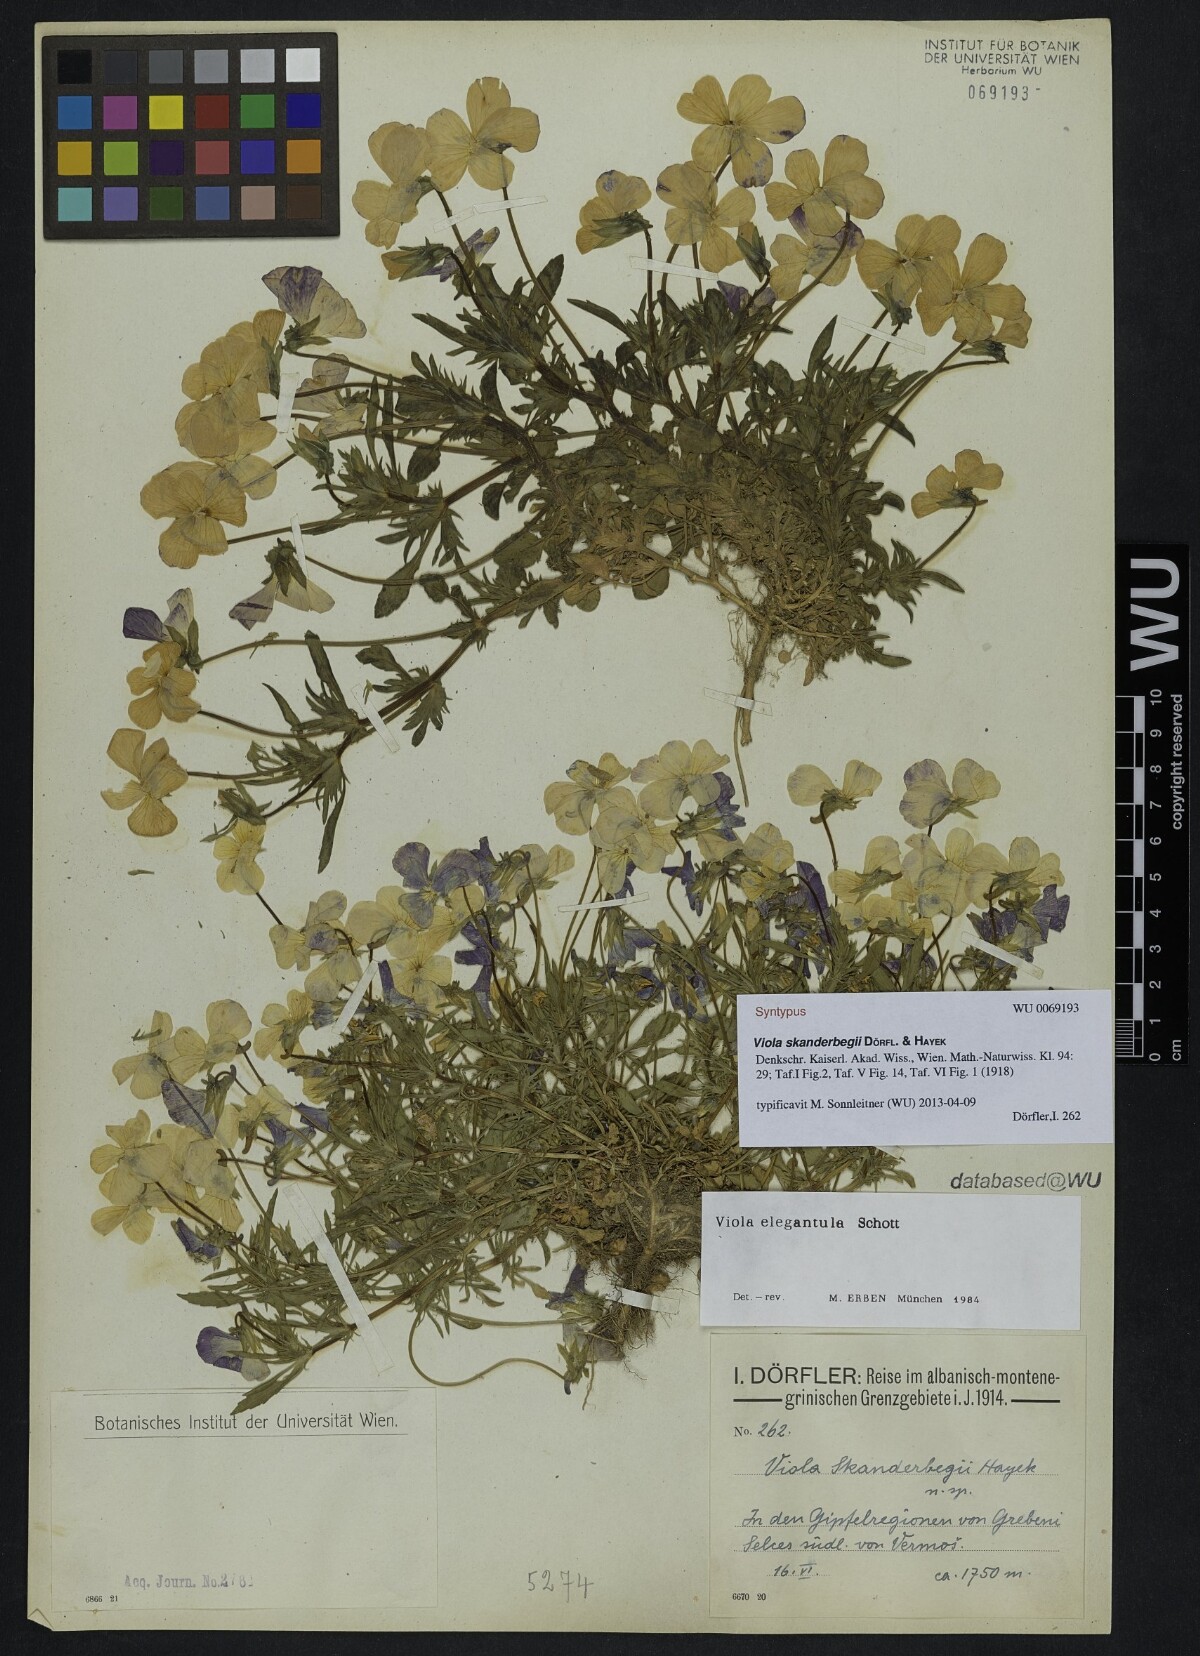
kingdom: Plantae
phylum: Tracheophyta
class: Magnoliopsida
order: Malpighiales
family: Violaceae
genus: Viola
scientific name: Viola skanderbegii
